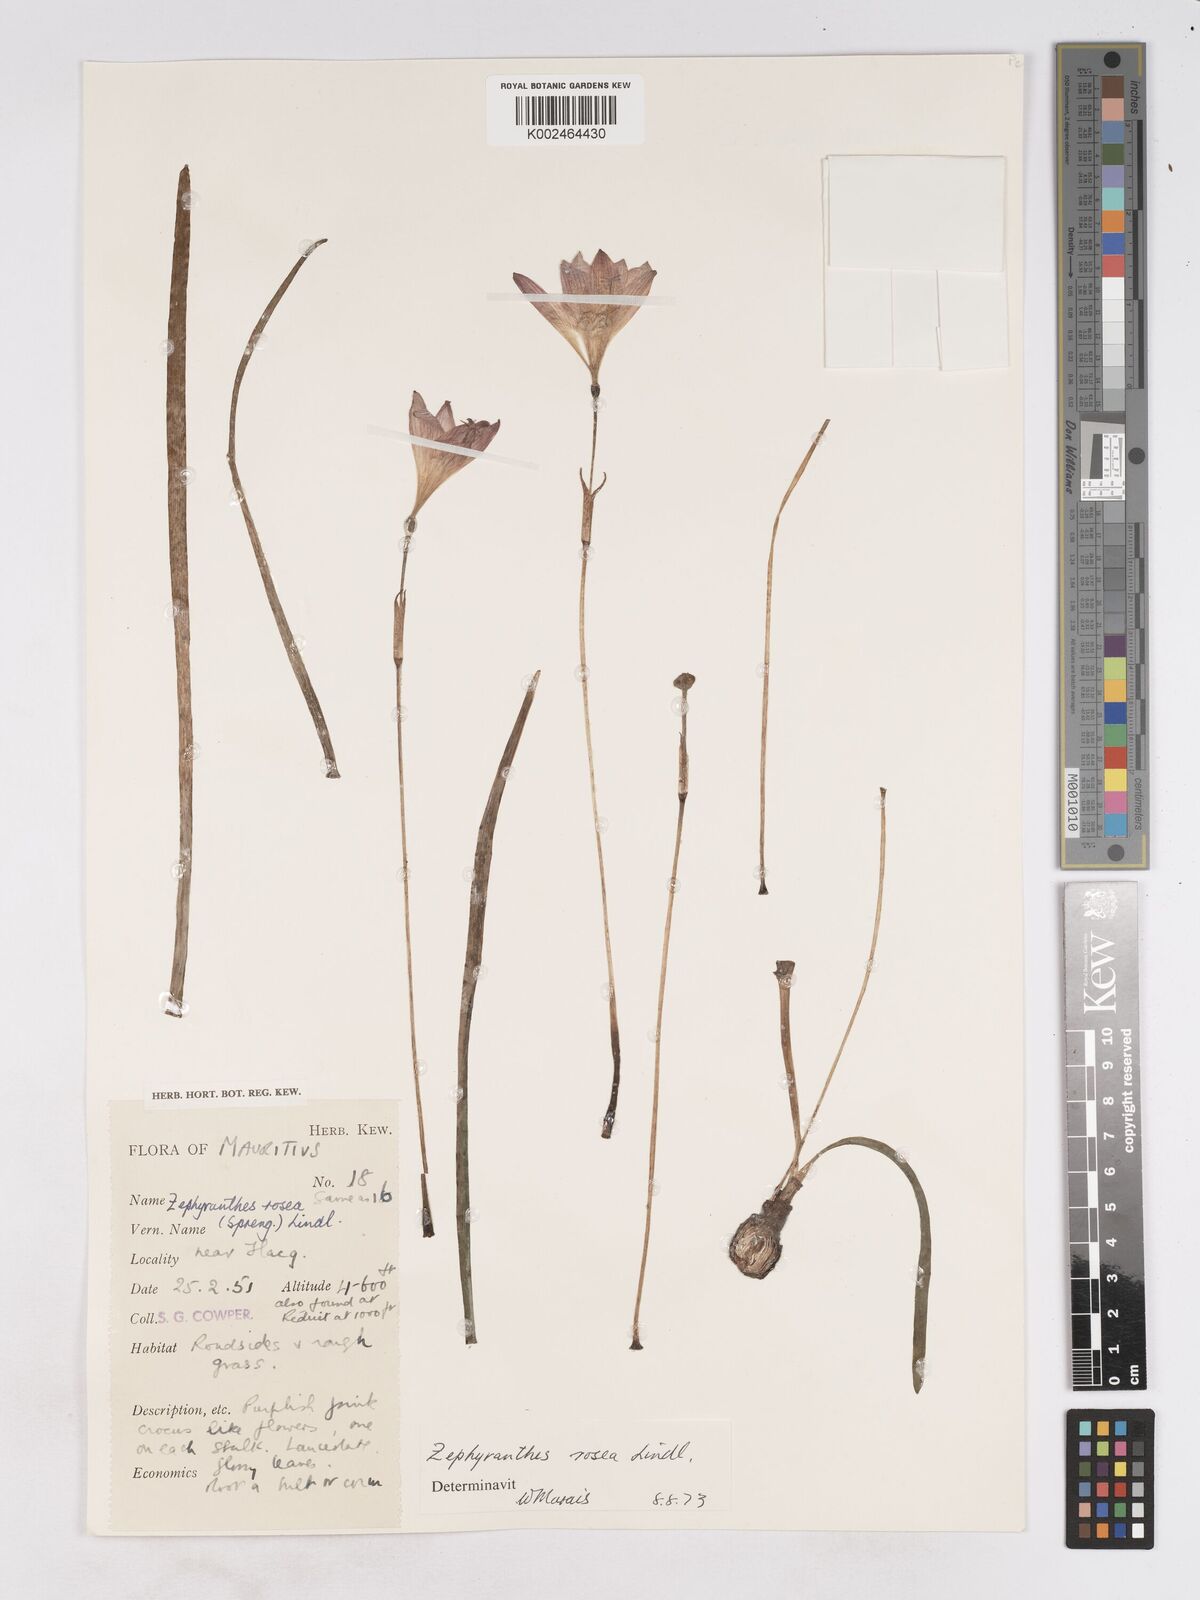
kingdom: Plantae
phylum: Tracheophyta
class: Liliopsida
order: Asparagales
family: Amaryllidaceae
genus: Zephyranthes
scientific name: Zephyranthes rosea
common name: Cuban zephyrlily
